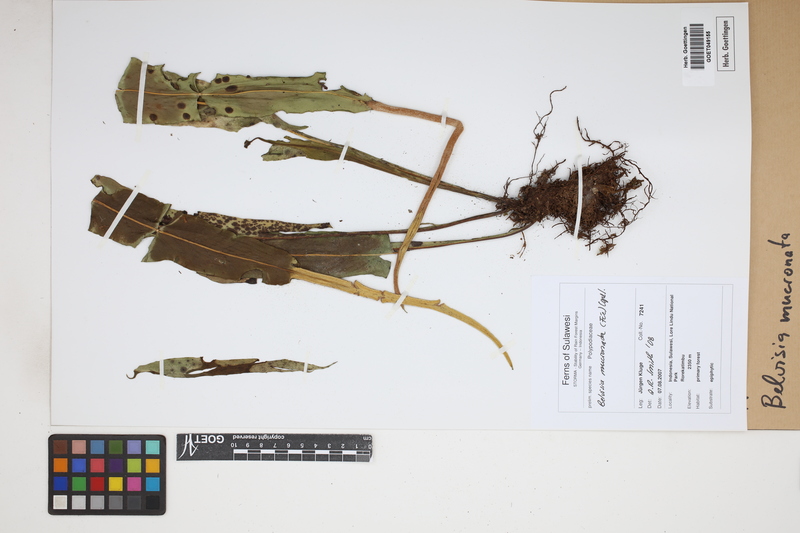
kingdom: Plantae
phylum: Tracheophyta
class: Polypodiopsida
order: Polypodiales
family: Polypodiaceae
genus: Lepisorus
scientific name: Lepisorus mucronatus
